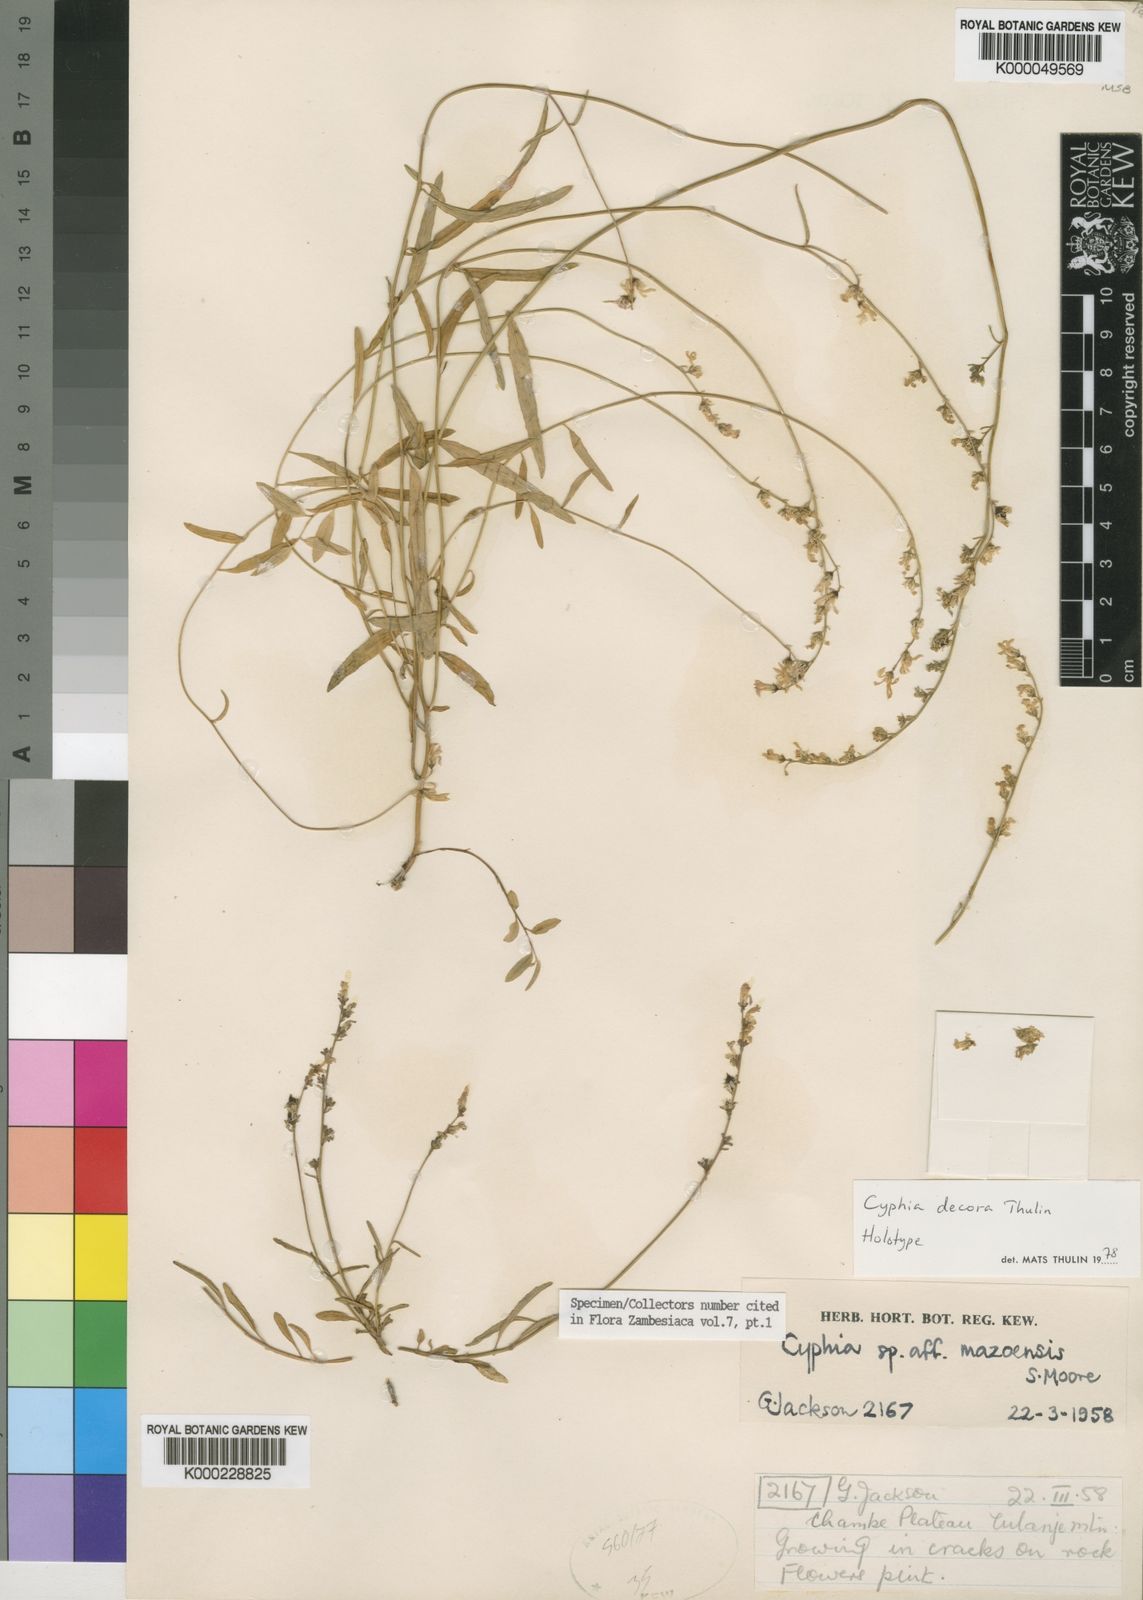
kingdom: Plantae
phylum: Tracheophyta
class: Magnoliopsida
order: Asterales
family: Campanulaceae
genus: Cyphia
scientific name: Cyphia decora
